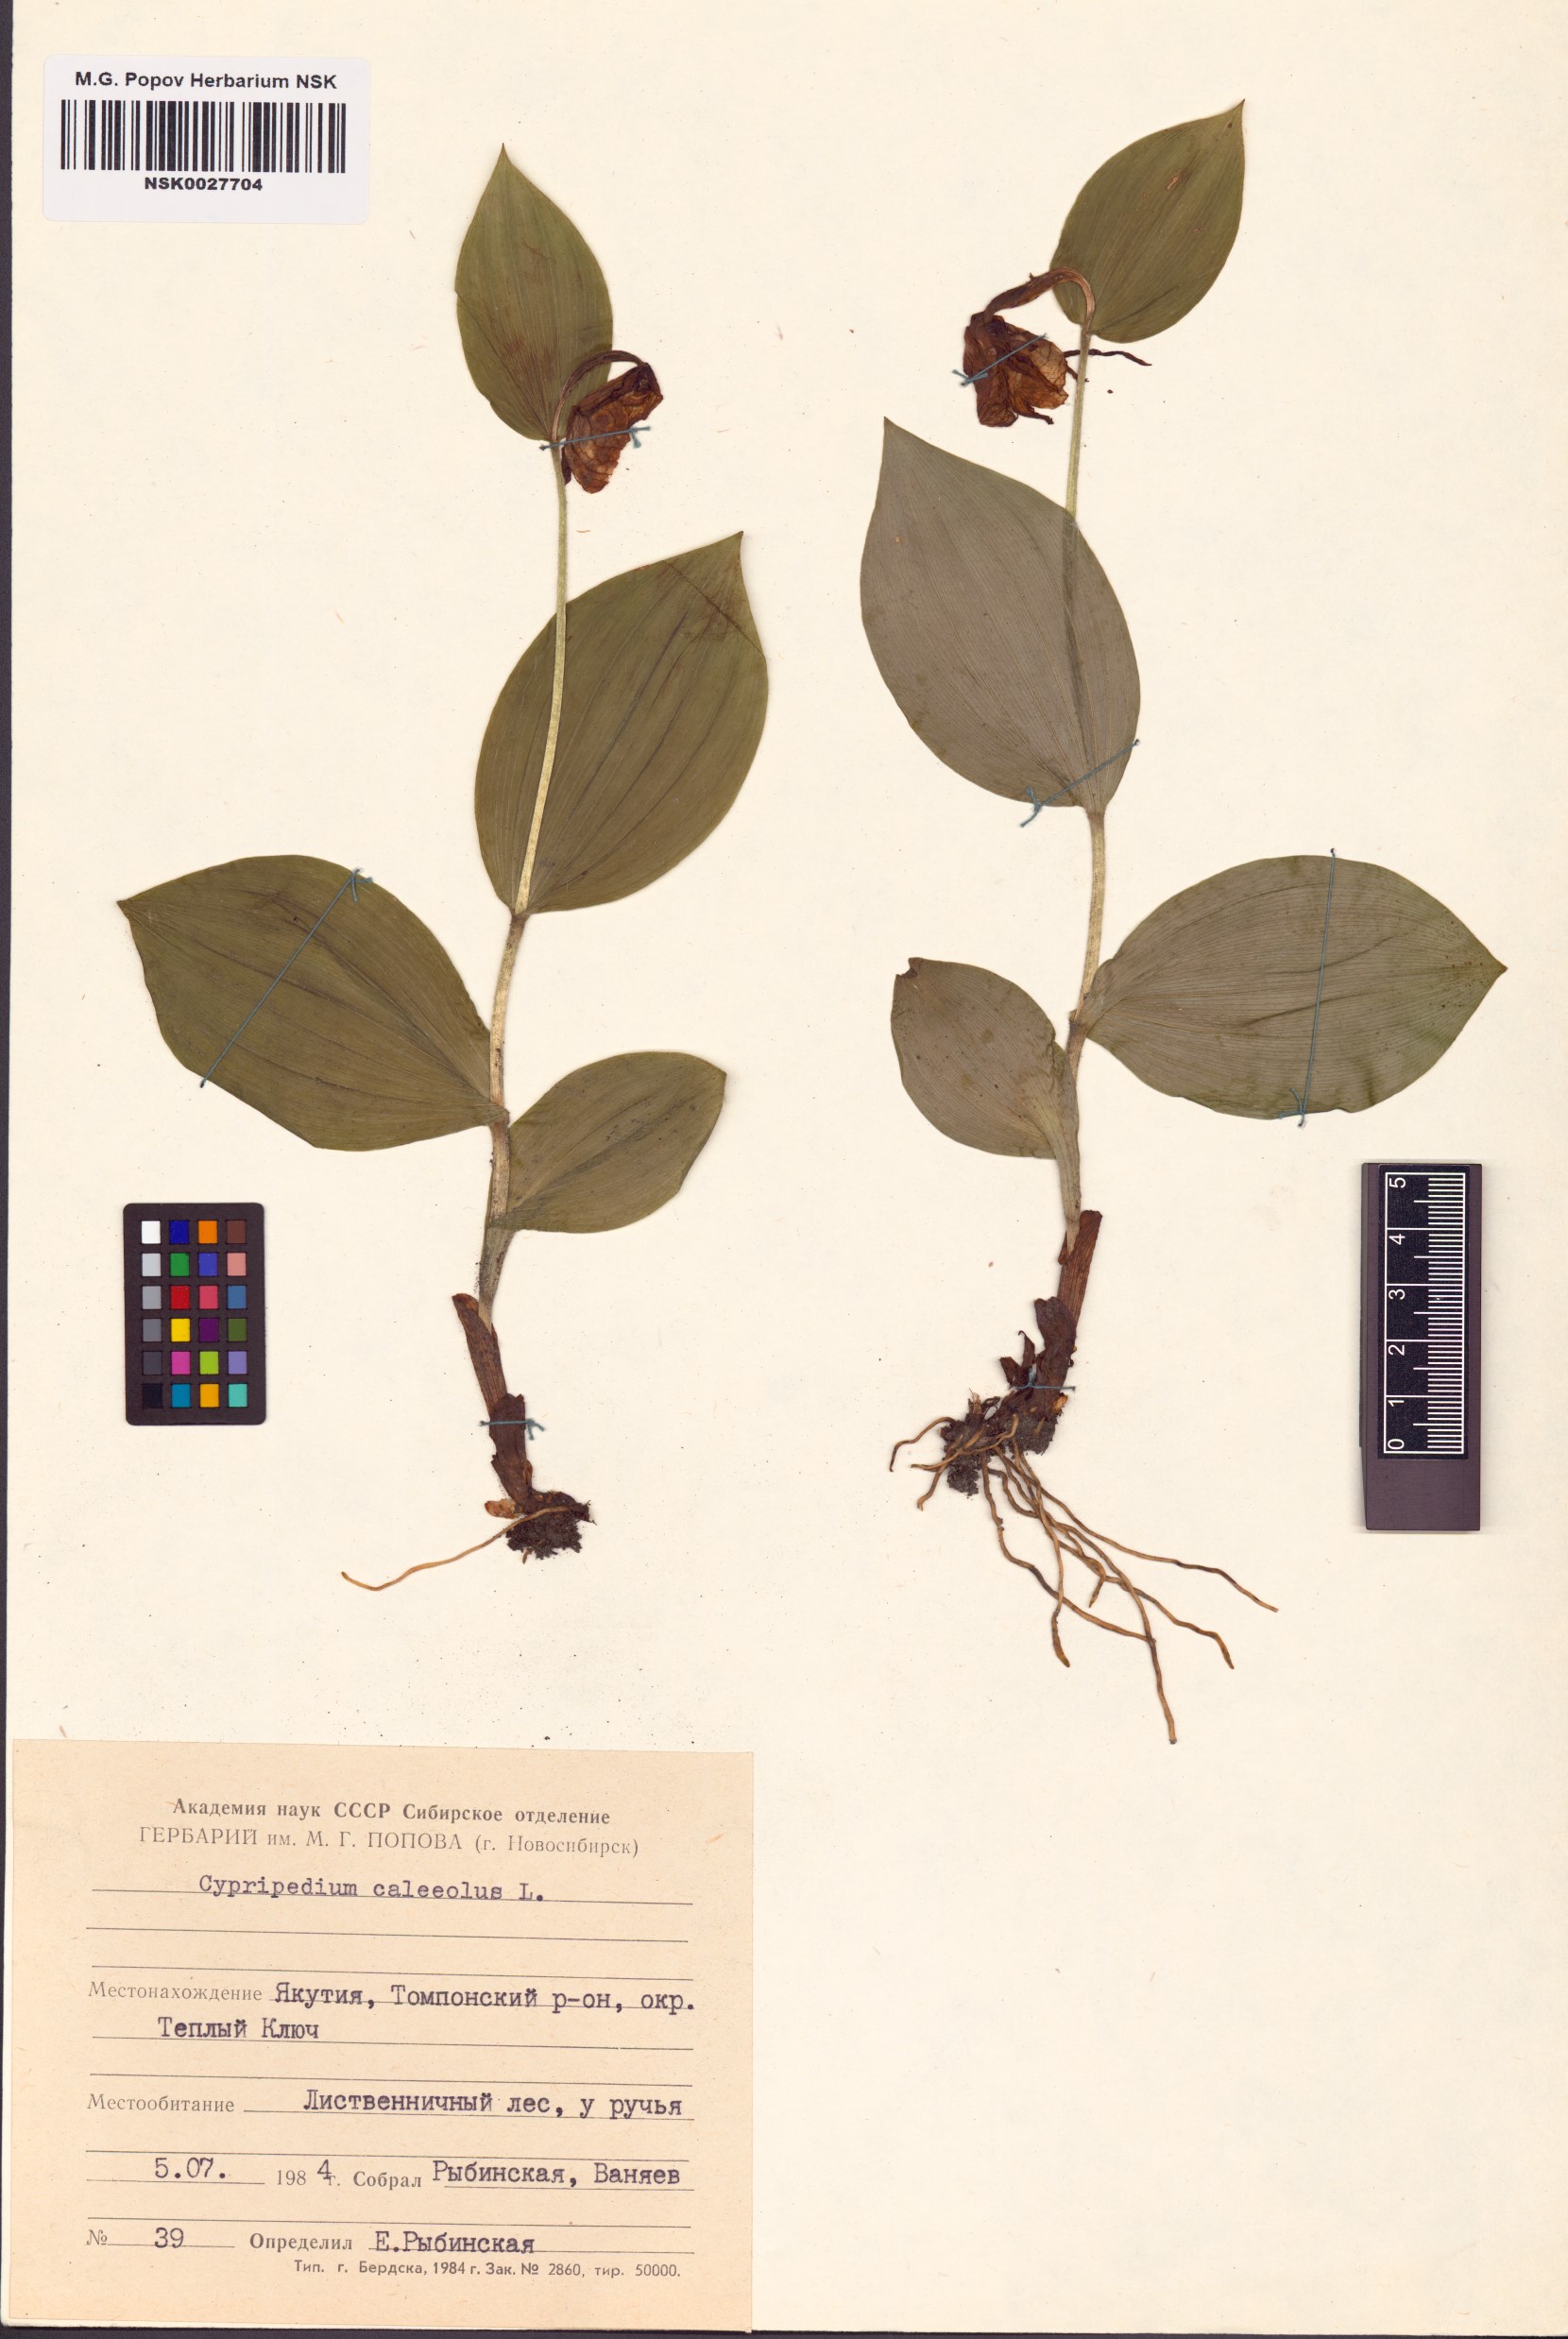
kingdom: Plantae
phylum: Tracheophyta
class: Liliopsida
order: Asparagales
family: Orchidaceae
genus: Cypripedium
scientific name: Cypripedium calceolus
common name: Lady's-slipper
